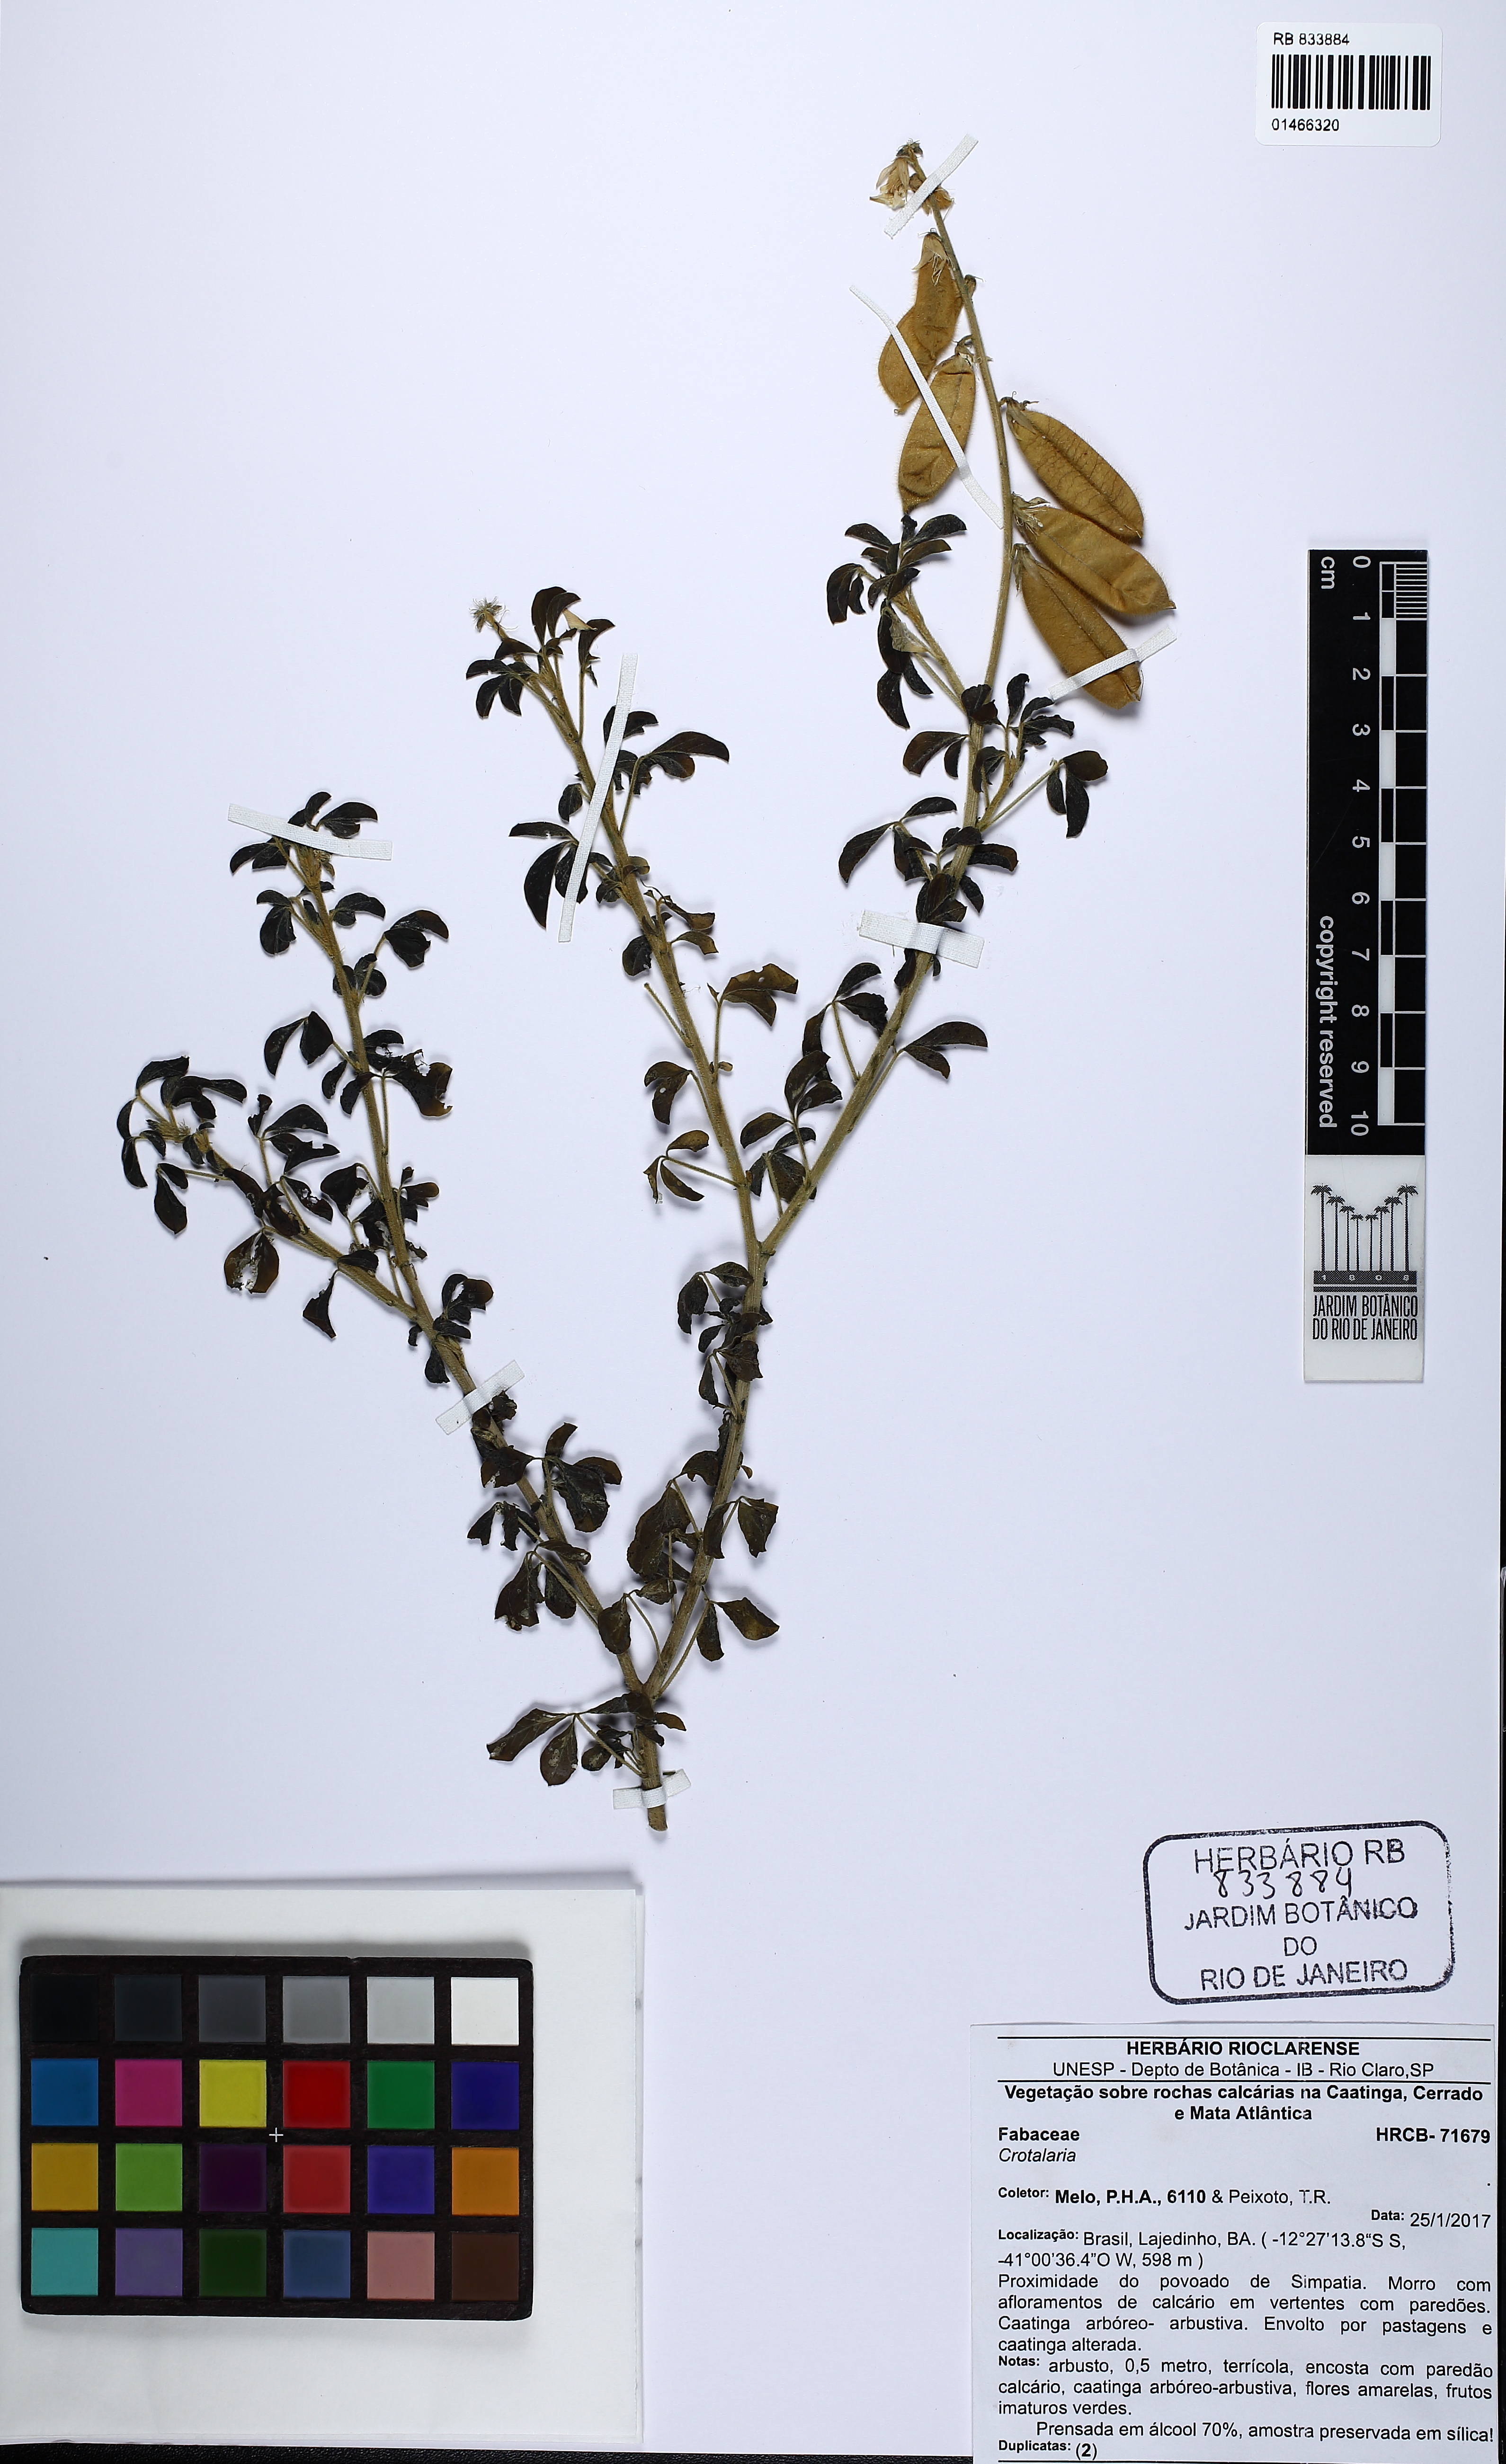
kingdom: Plantae
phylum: Tracheophyta
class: Magnoliopsida
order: Fabales
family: Fabaceae
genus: Crotalaria
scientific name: Crotalaria
